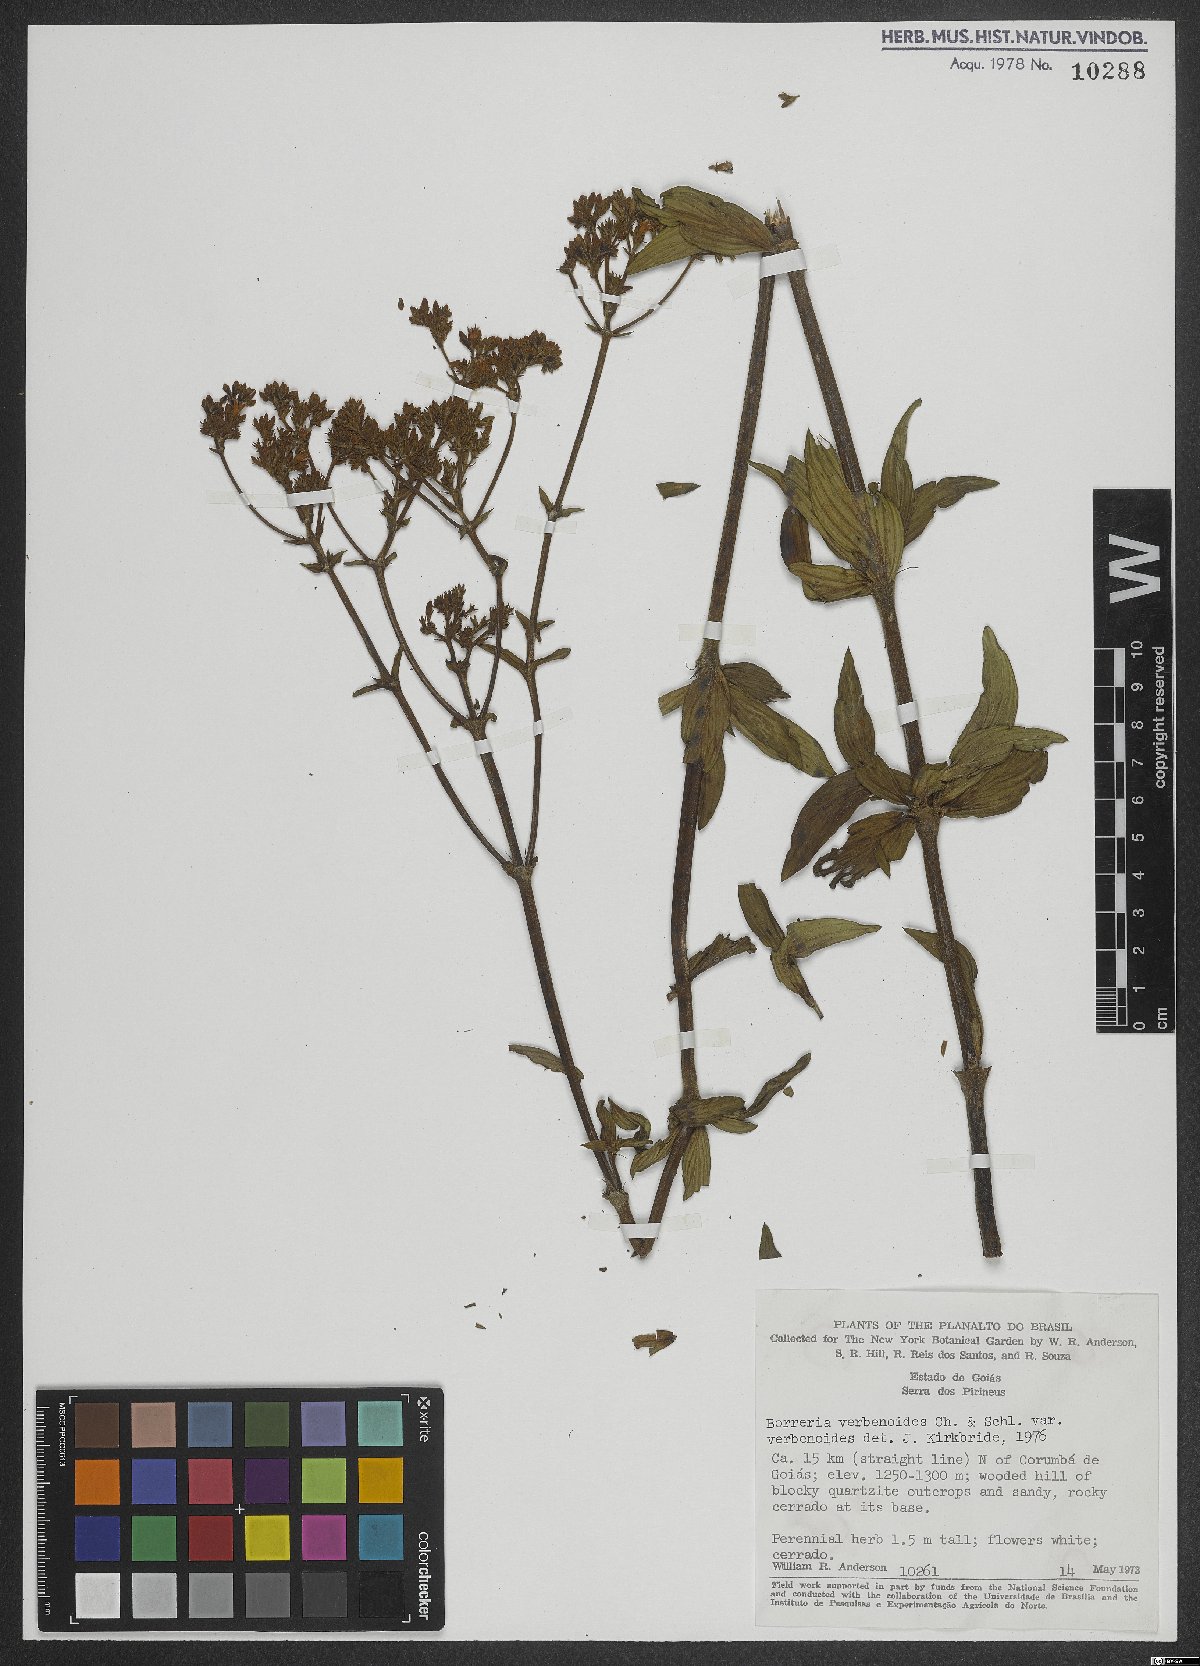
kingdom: Plantae
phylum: Tracheophyta
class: Magnoliopsida
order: Gentianales
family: Rubiaceae
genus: Spermacoce
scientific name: Spermacoce verbenoides
